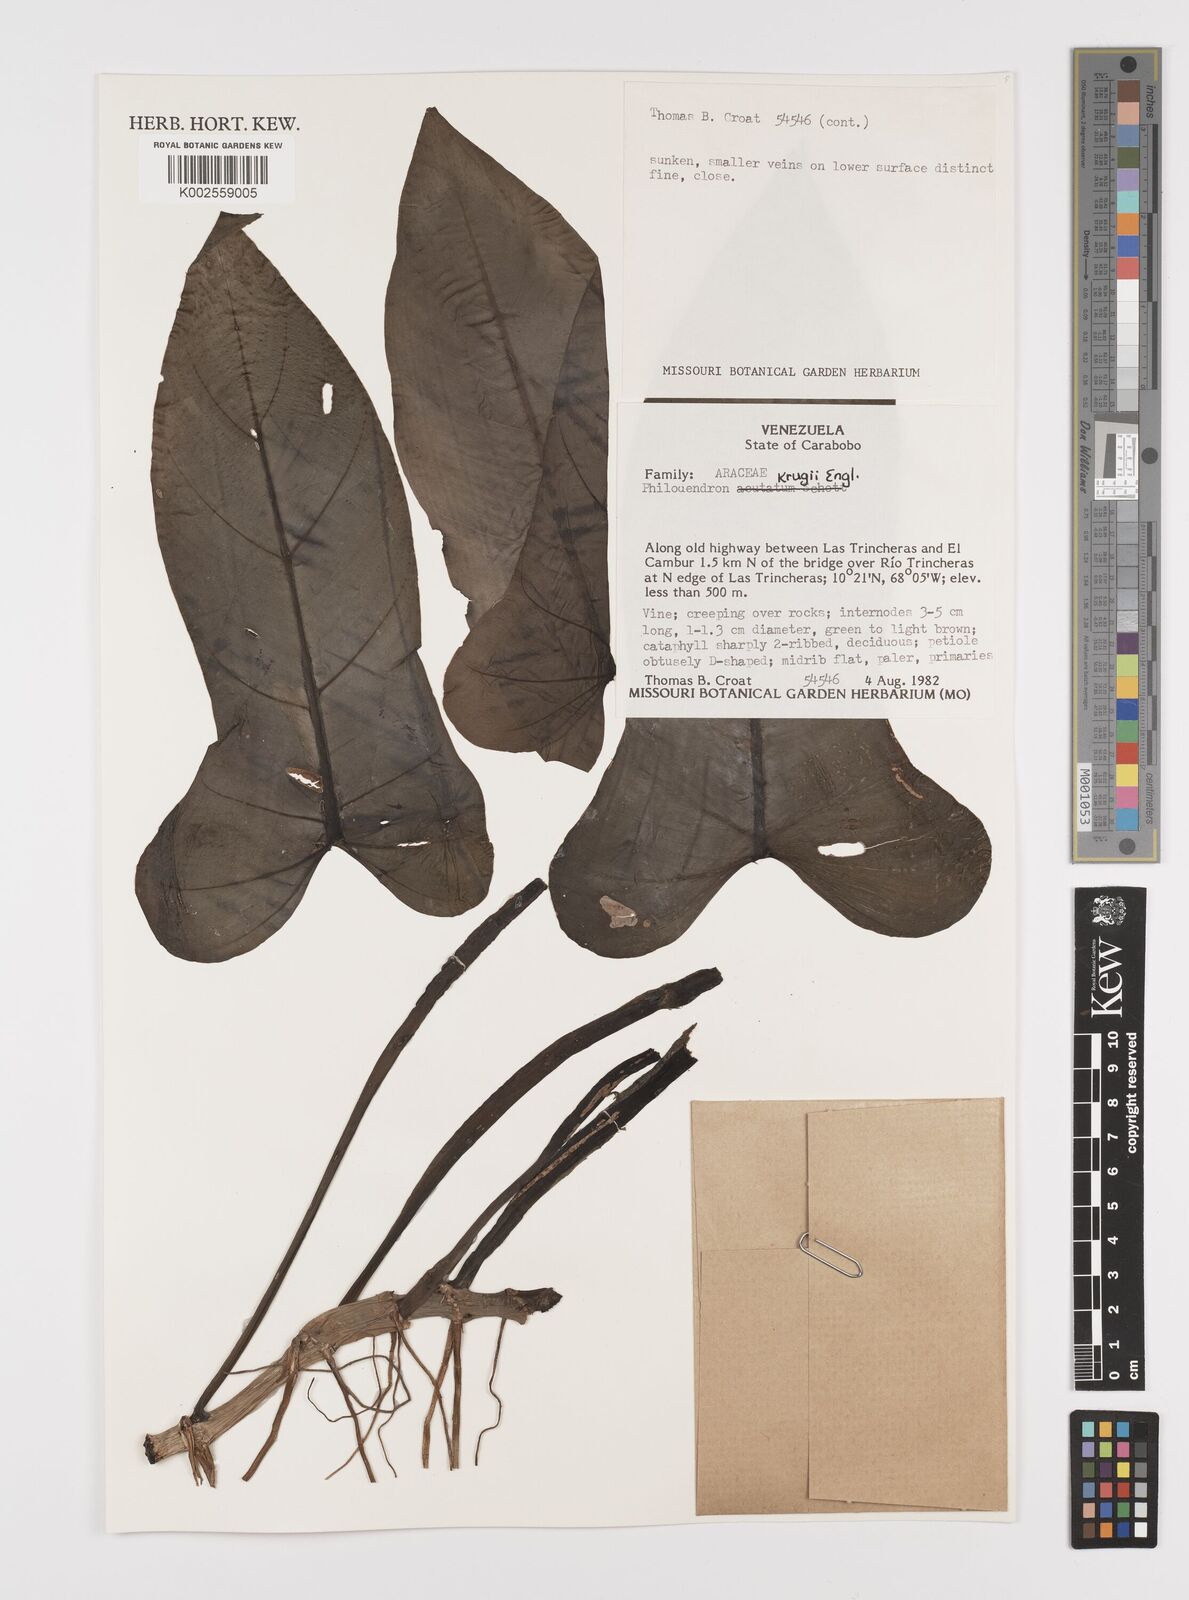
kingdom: Plantae
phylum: Tracheophyta
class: Liliopsida
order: Alismatales
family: Araceae
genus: Philodendron
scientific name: Philodendron krugii
